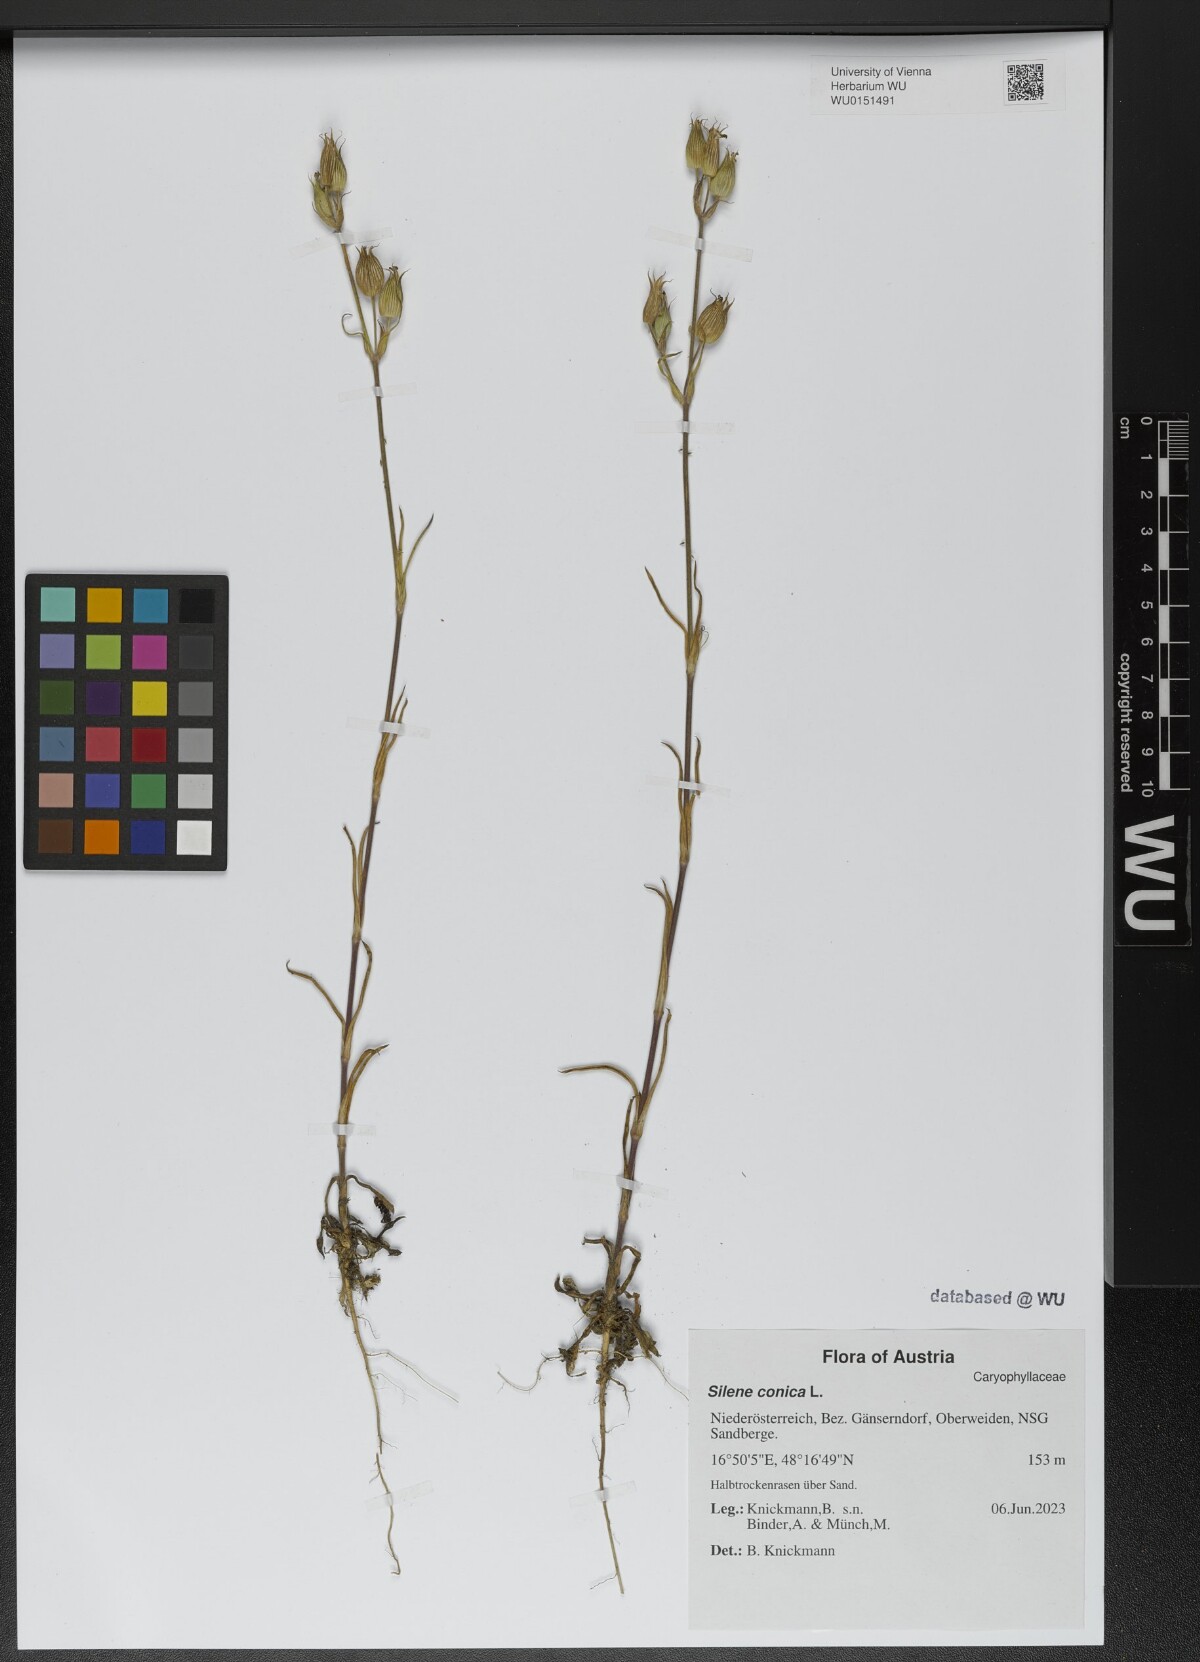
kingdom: Plantae
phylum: Tracheophyta
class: Magnoliopsida
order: Caryophyllales
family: Caryophyllaceae
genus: Silene
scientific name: Silene conica
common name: Sand catchfly
